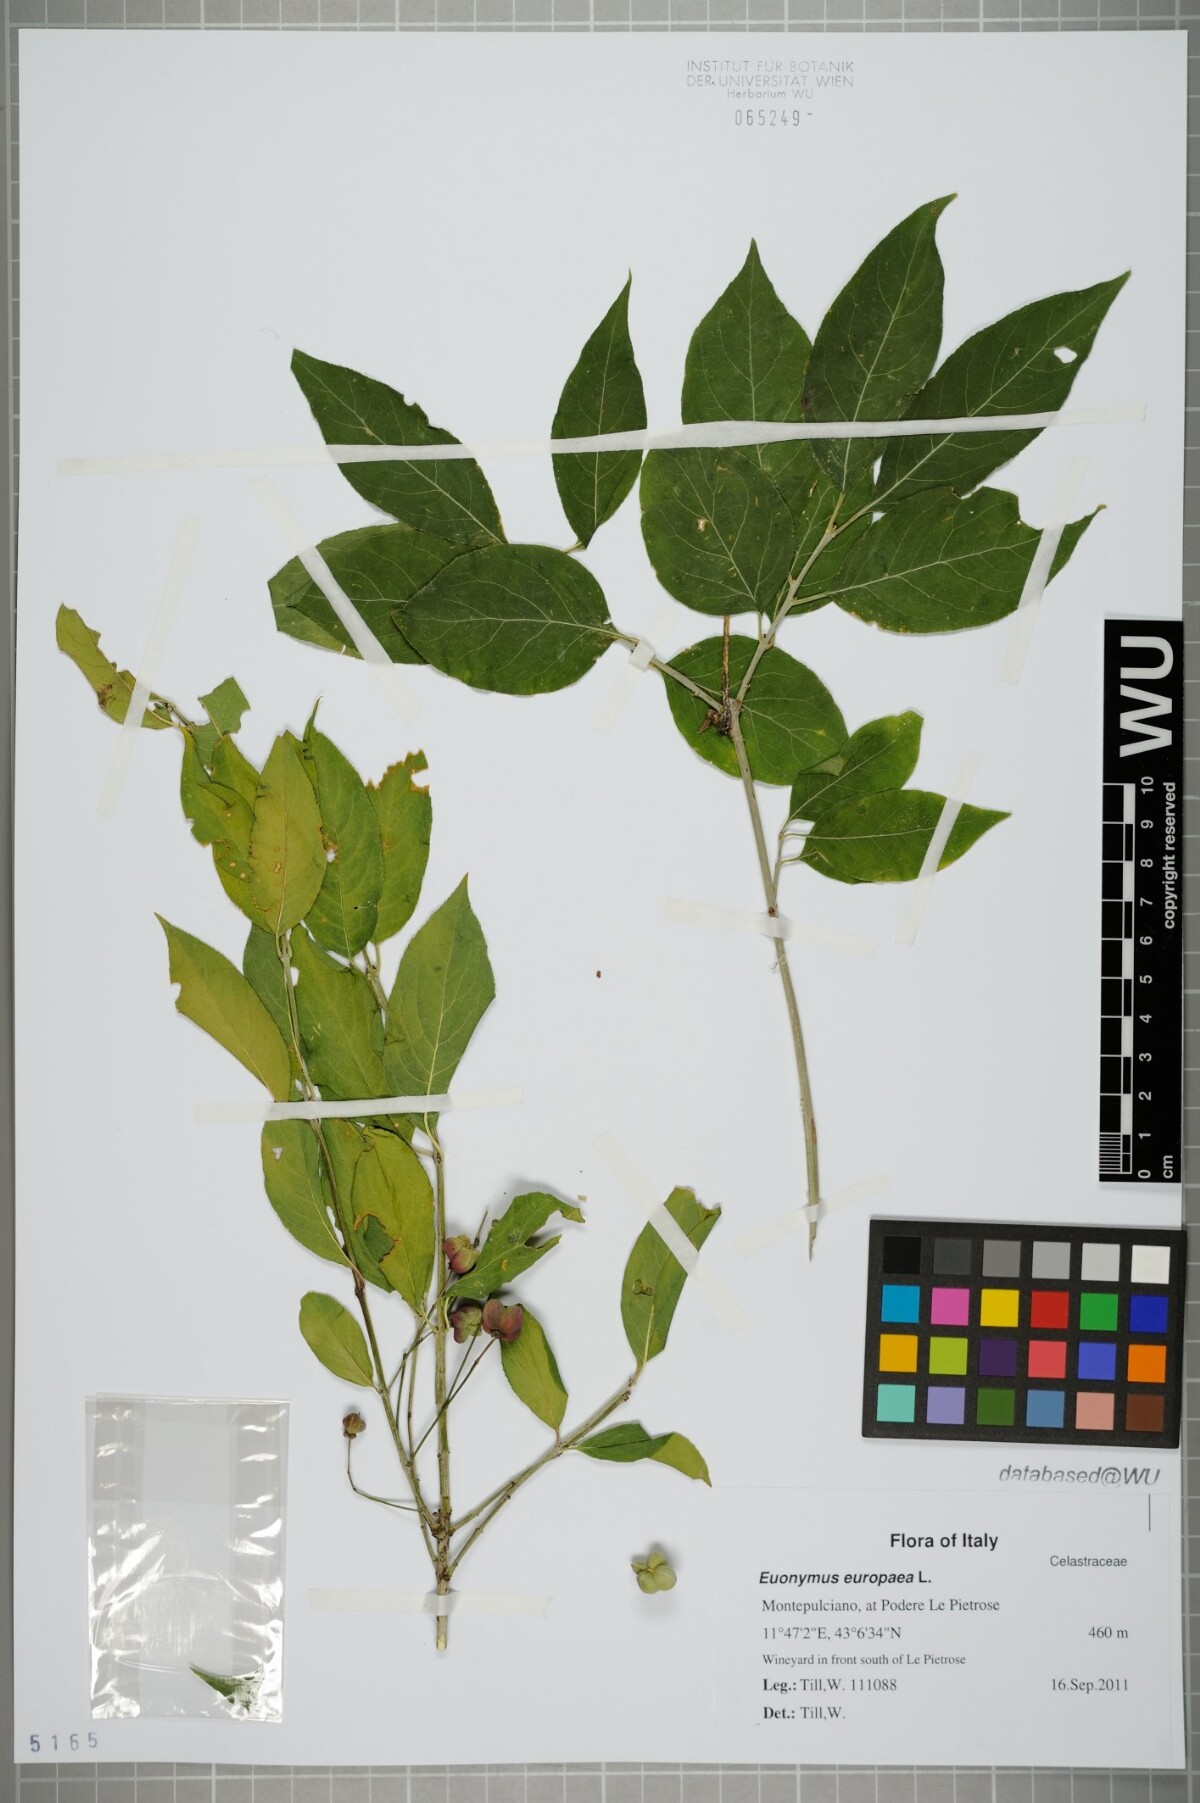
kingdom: Plantae
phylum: Tracheophyta
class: Magnoliopsida
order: Celastrales
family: Celastraceae
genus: Euonymus
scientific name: Euonymus europaeus
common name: Spindle
